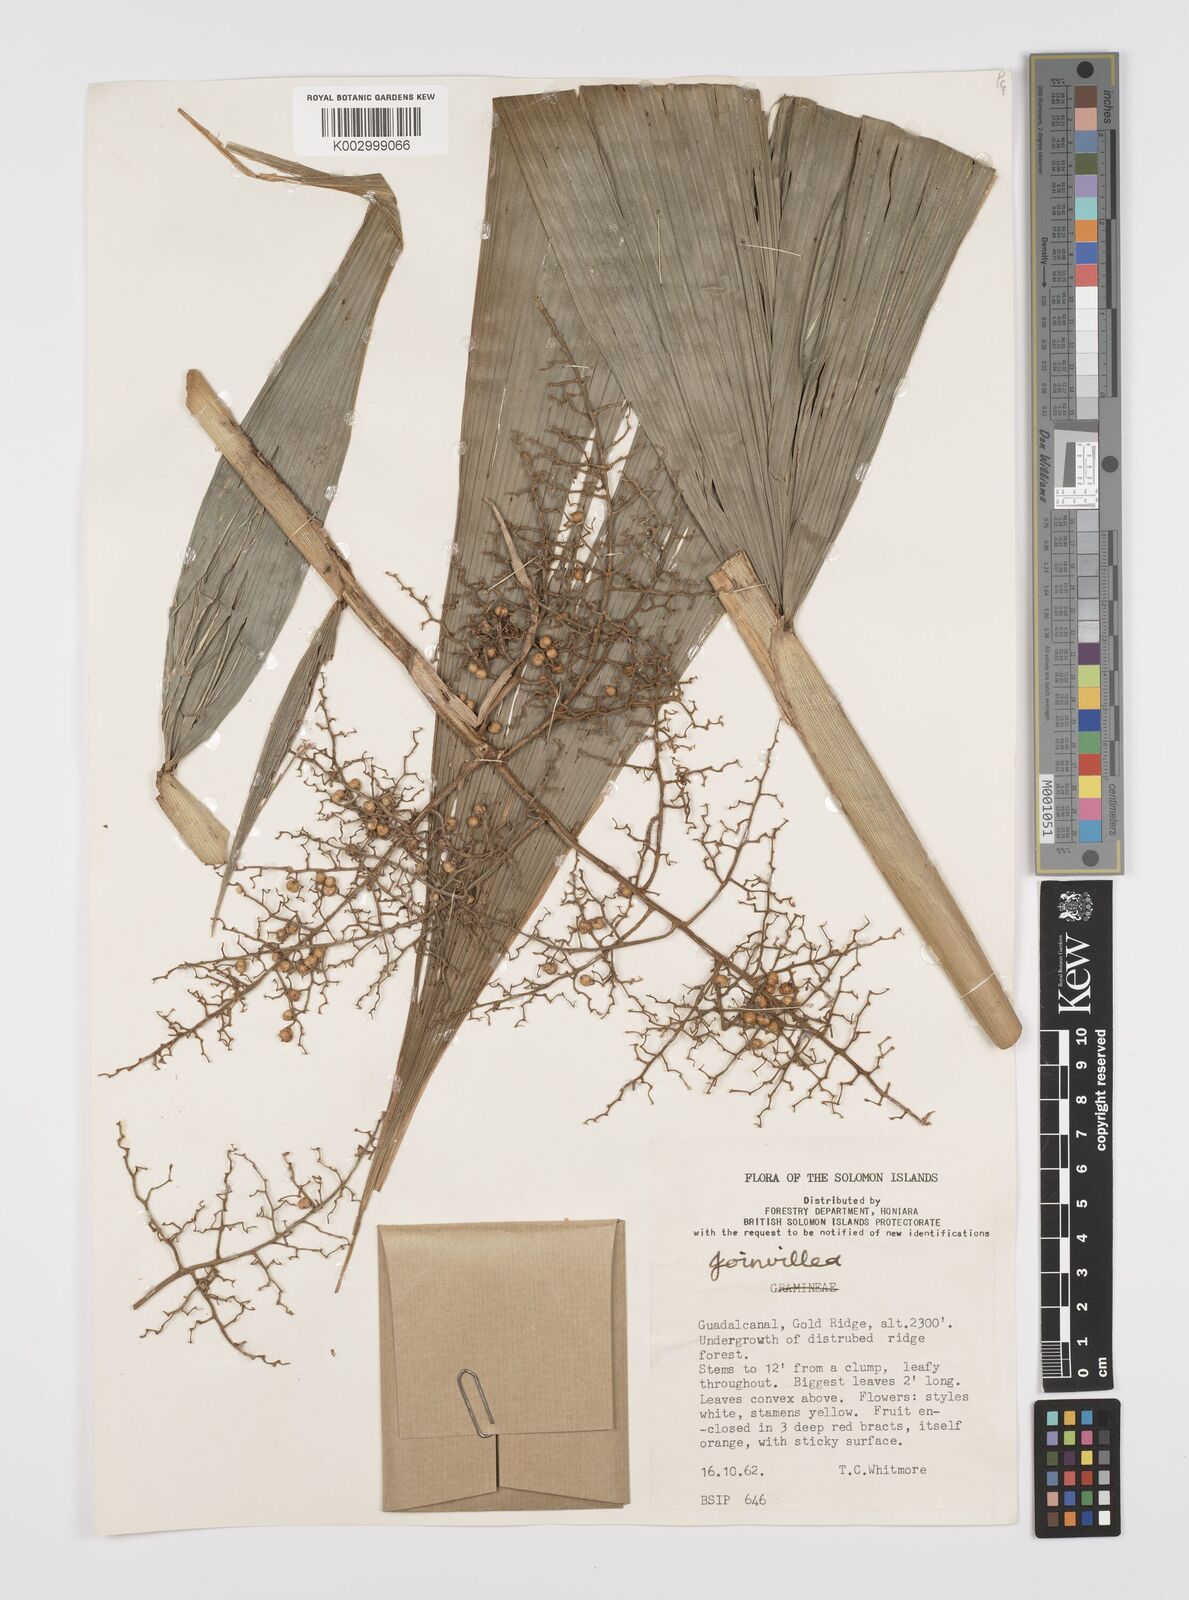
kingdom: Plantae
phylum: Tracheophyta
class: Liliopsida
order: Poales
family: Joinvilleaceae
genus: Joinvillea
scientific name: Joinvillea
